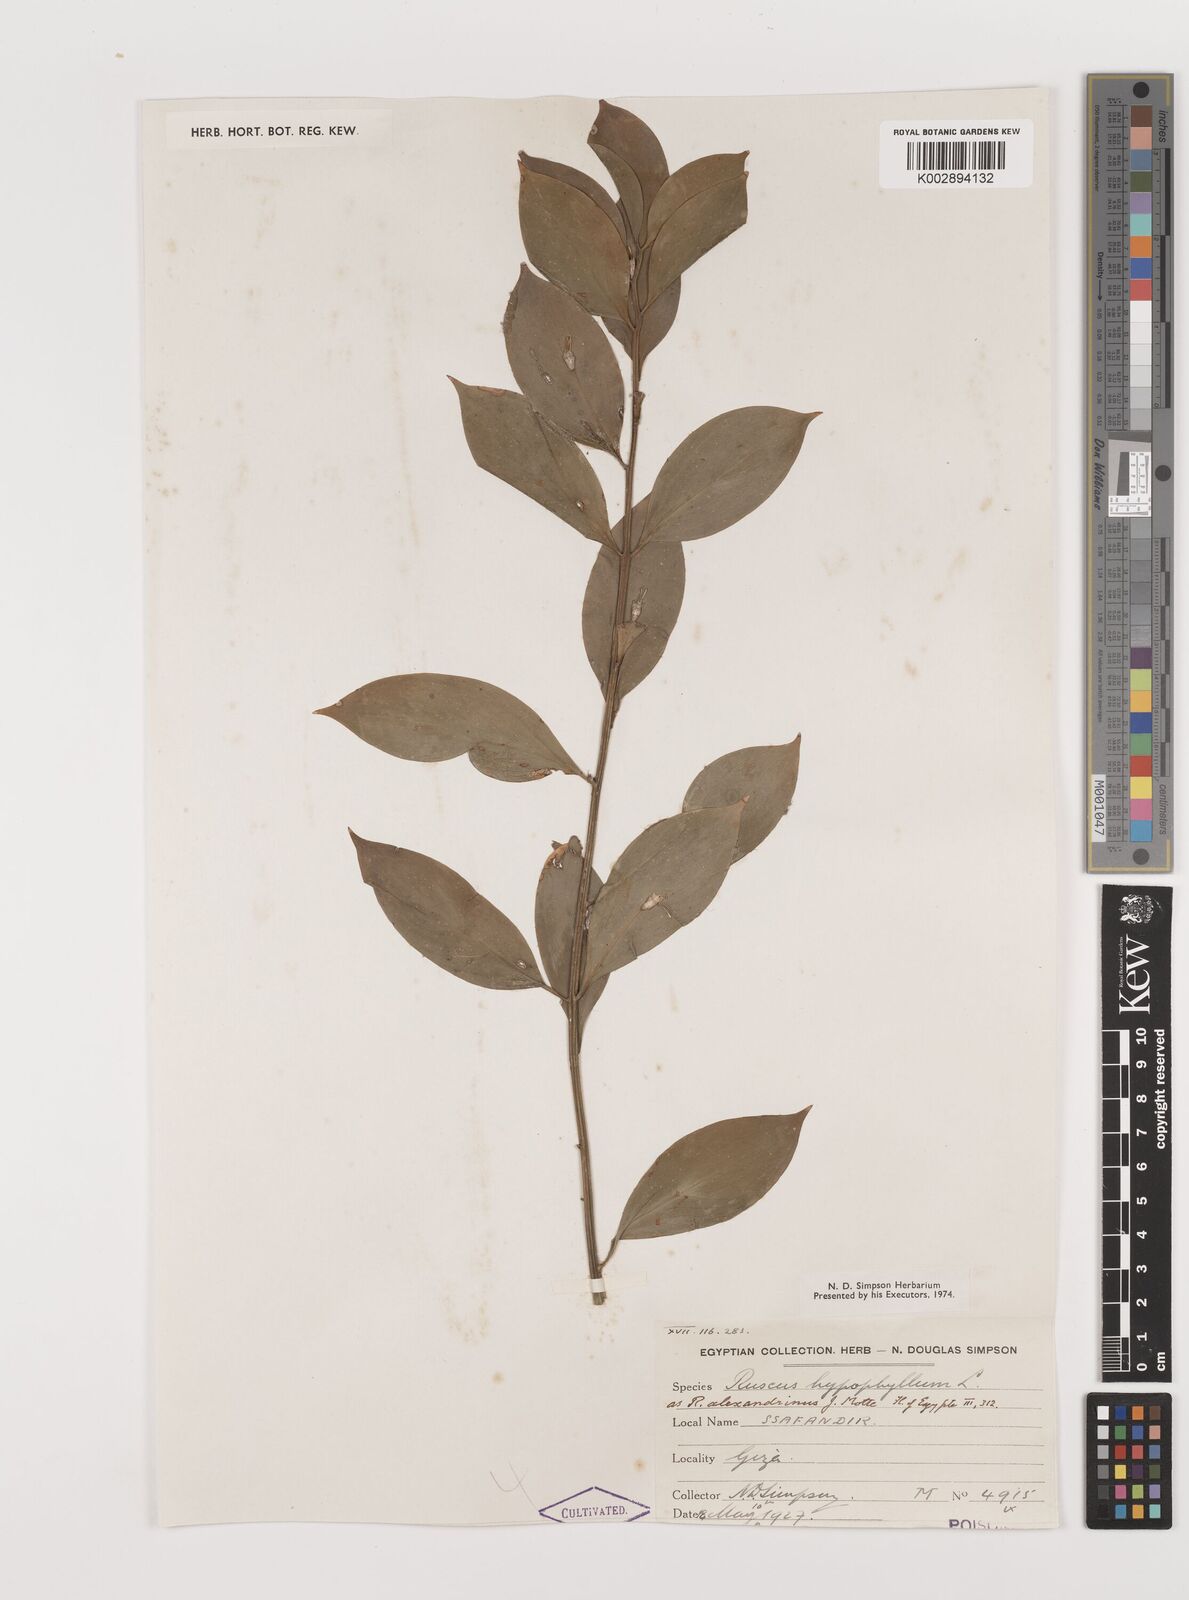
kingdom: Plantae
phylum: Tracheophyta
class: Liliopsida
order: Asparagales
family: Asparagaceae
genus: Ruscus
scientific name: Ruscus hypophyllum
